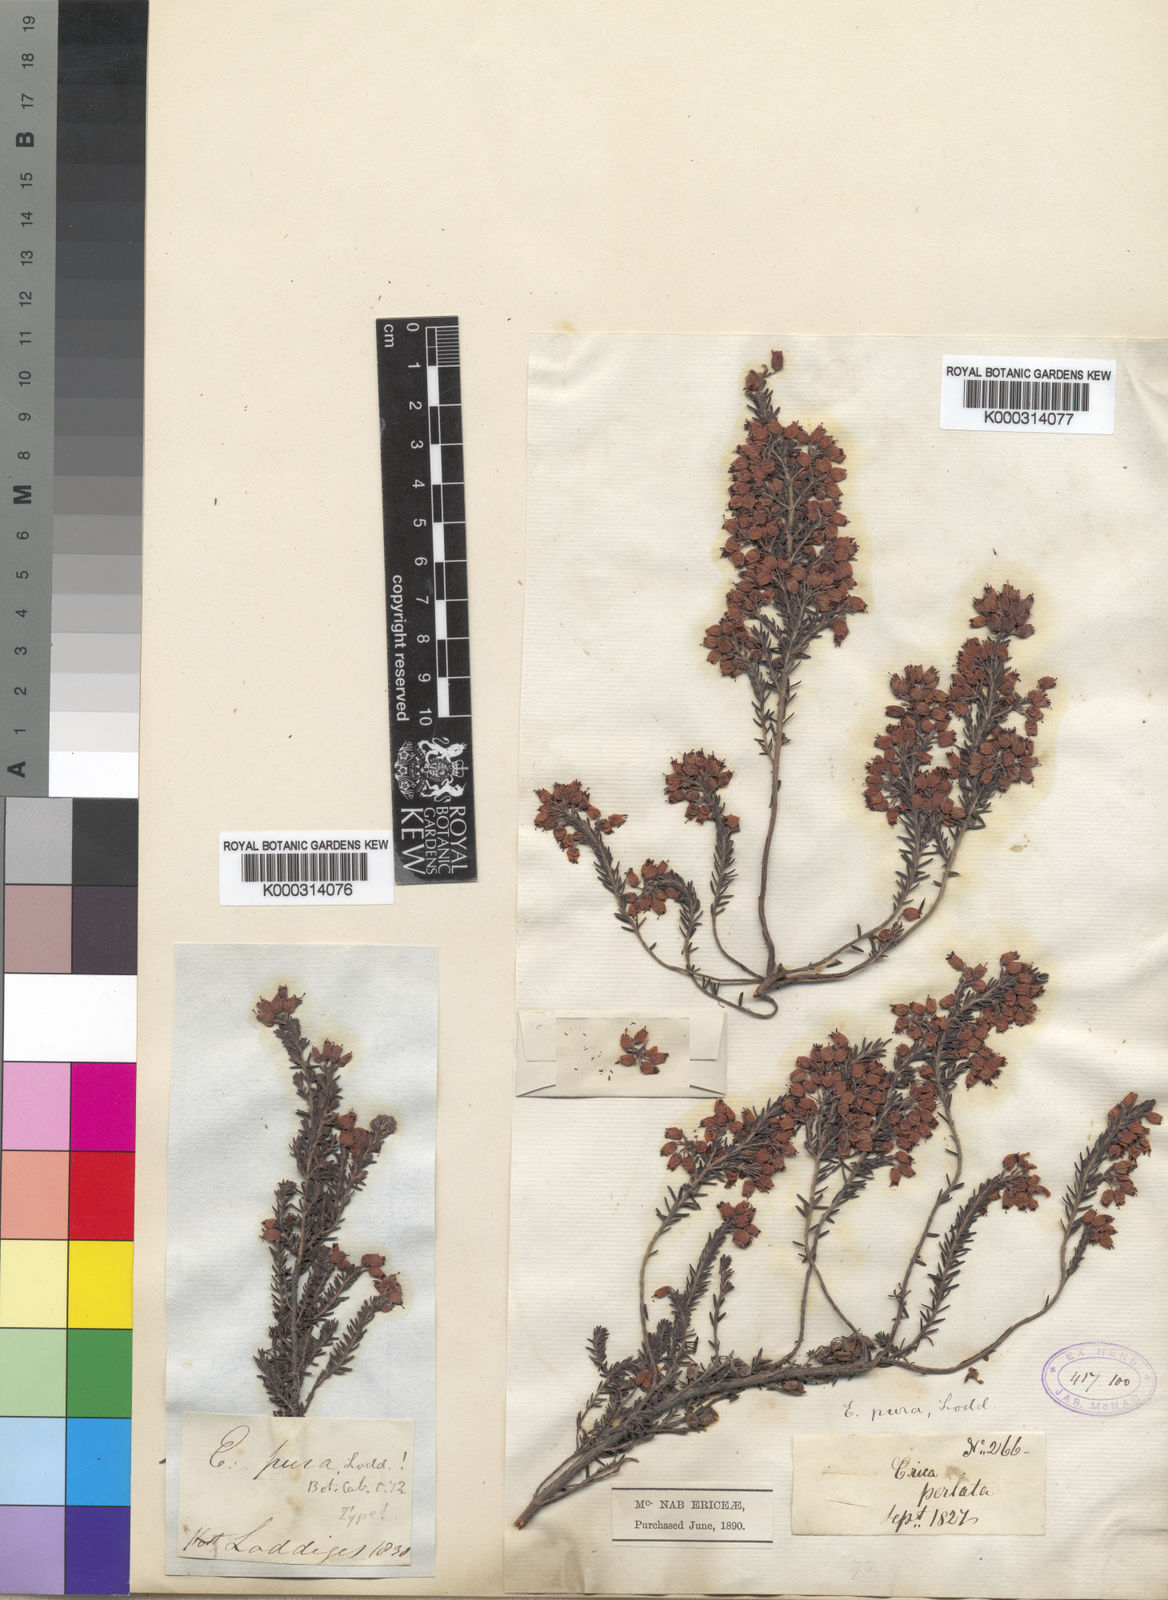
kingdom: Plantae
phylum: Tracheophyta
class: Magnoliopsida
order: Ericales
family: Ericaceae
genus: Erica
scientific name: Erica
